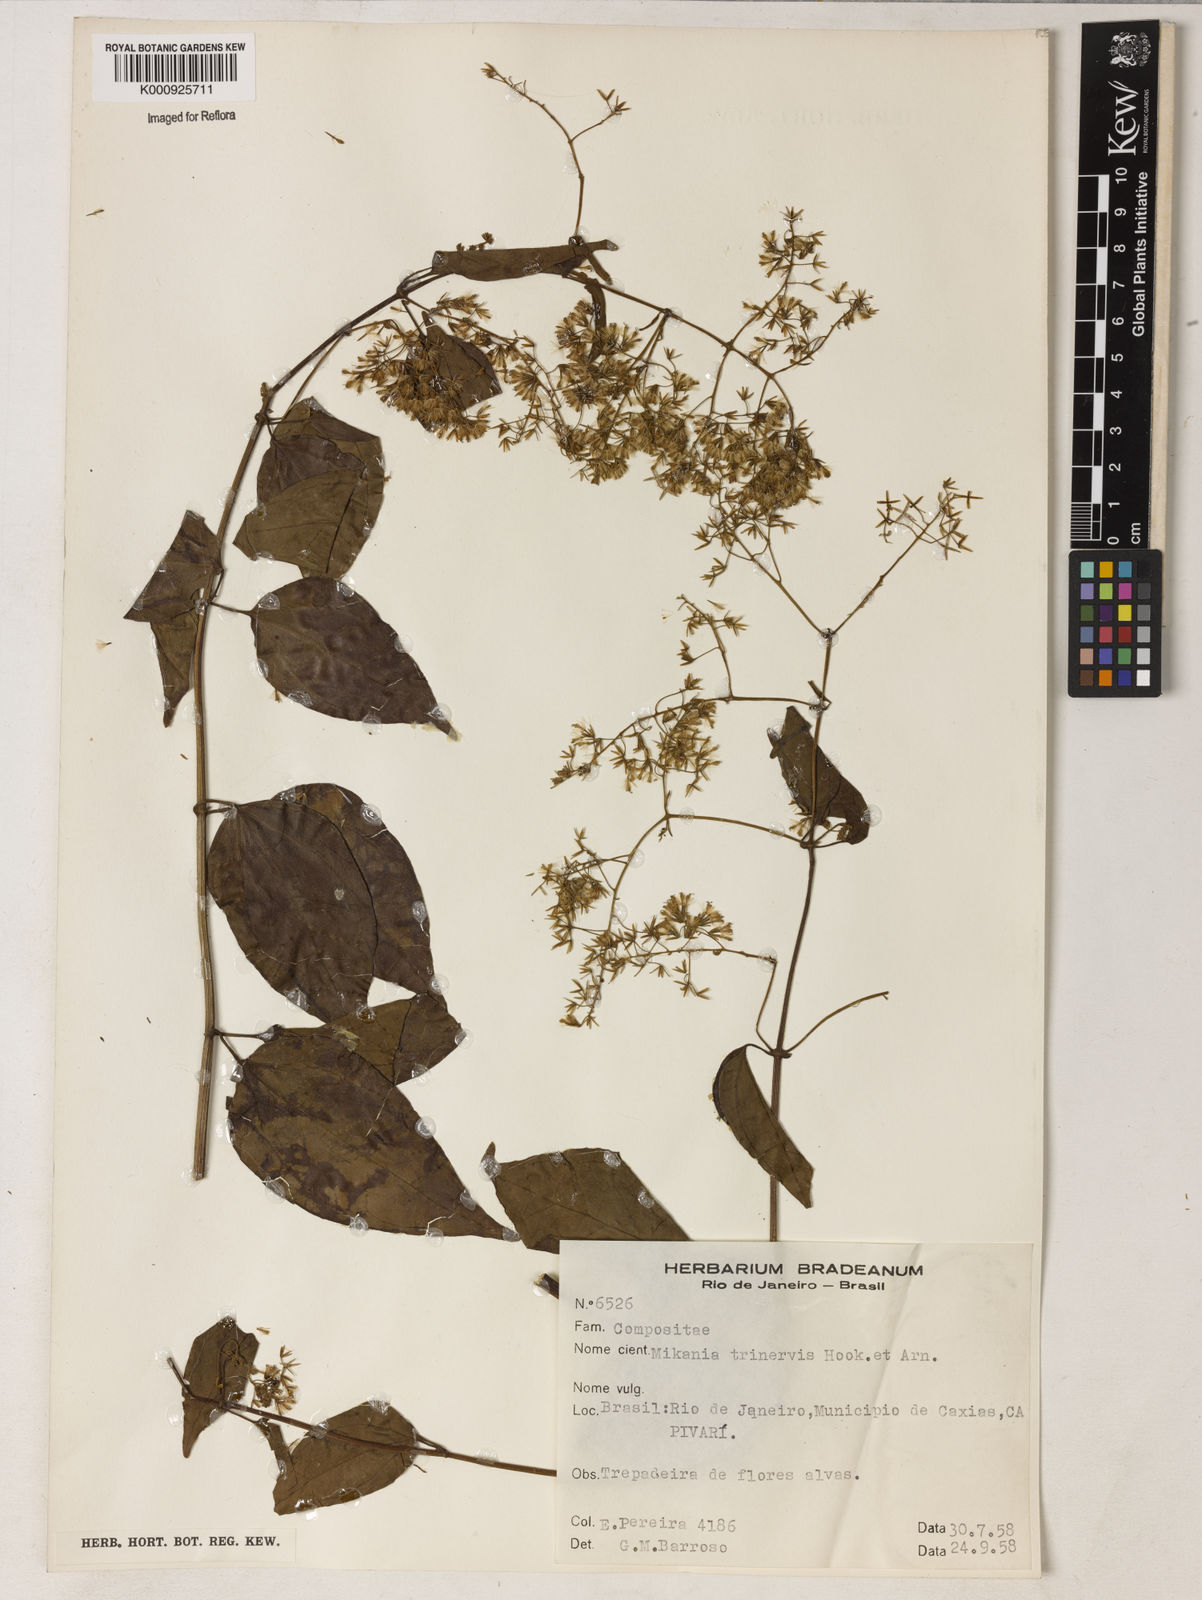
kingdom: Plantae
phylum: Tracheophyta
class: Magnoliopsida
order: Asterales
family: Asteraceae
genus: Mikania
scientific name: Mikania trinervis
